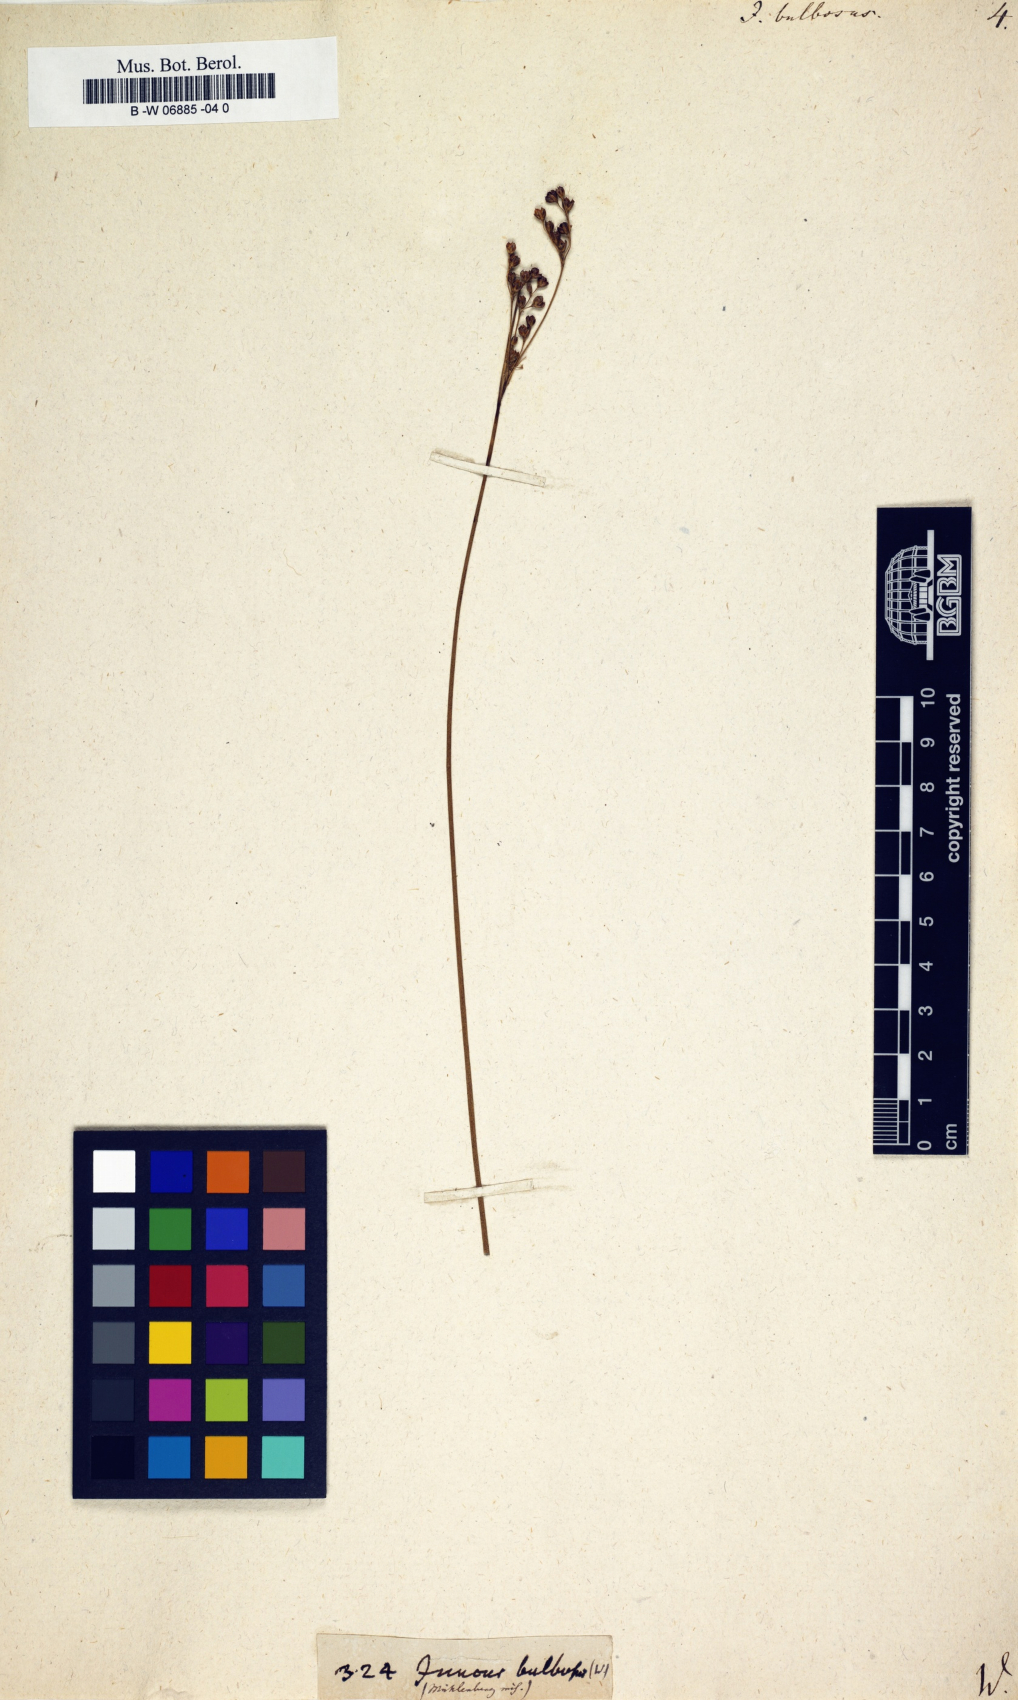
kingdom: Plantae
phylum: Tracheophyta
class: Liliopsida
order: Poales
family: Juncaceae
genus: Juncus
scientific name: Juncus bulbosus
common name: Bulbous rush
